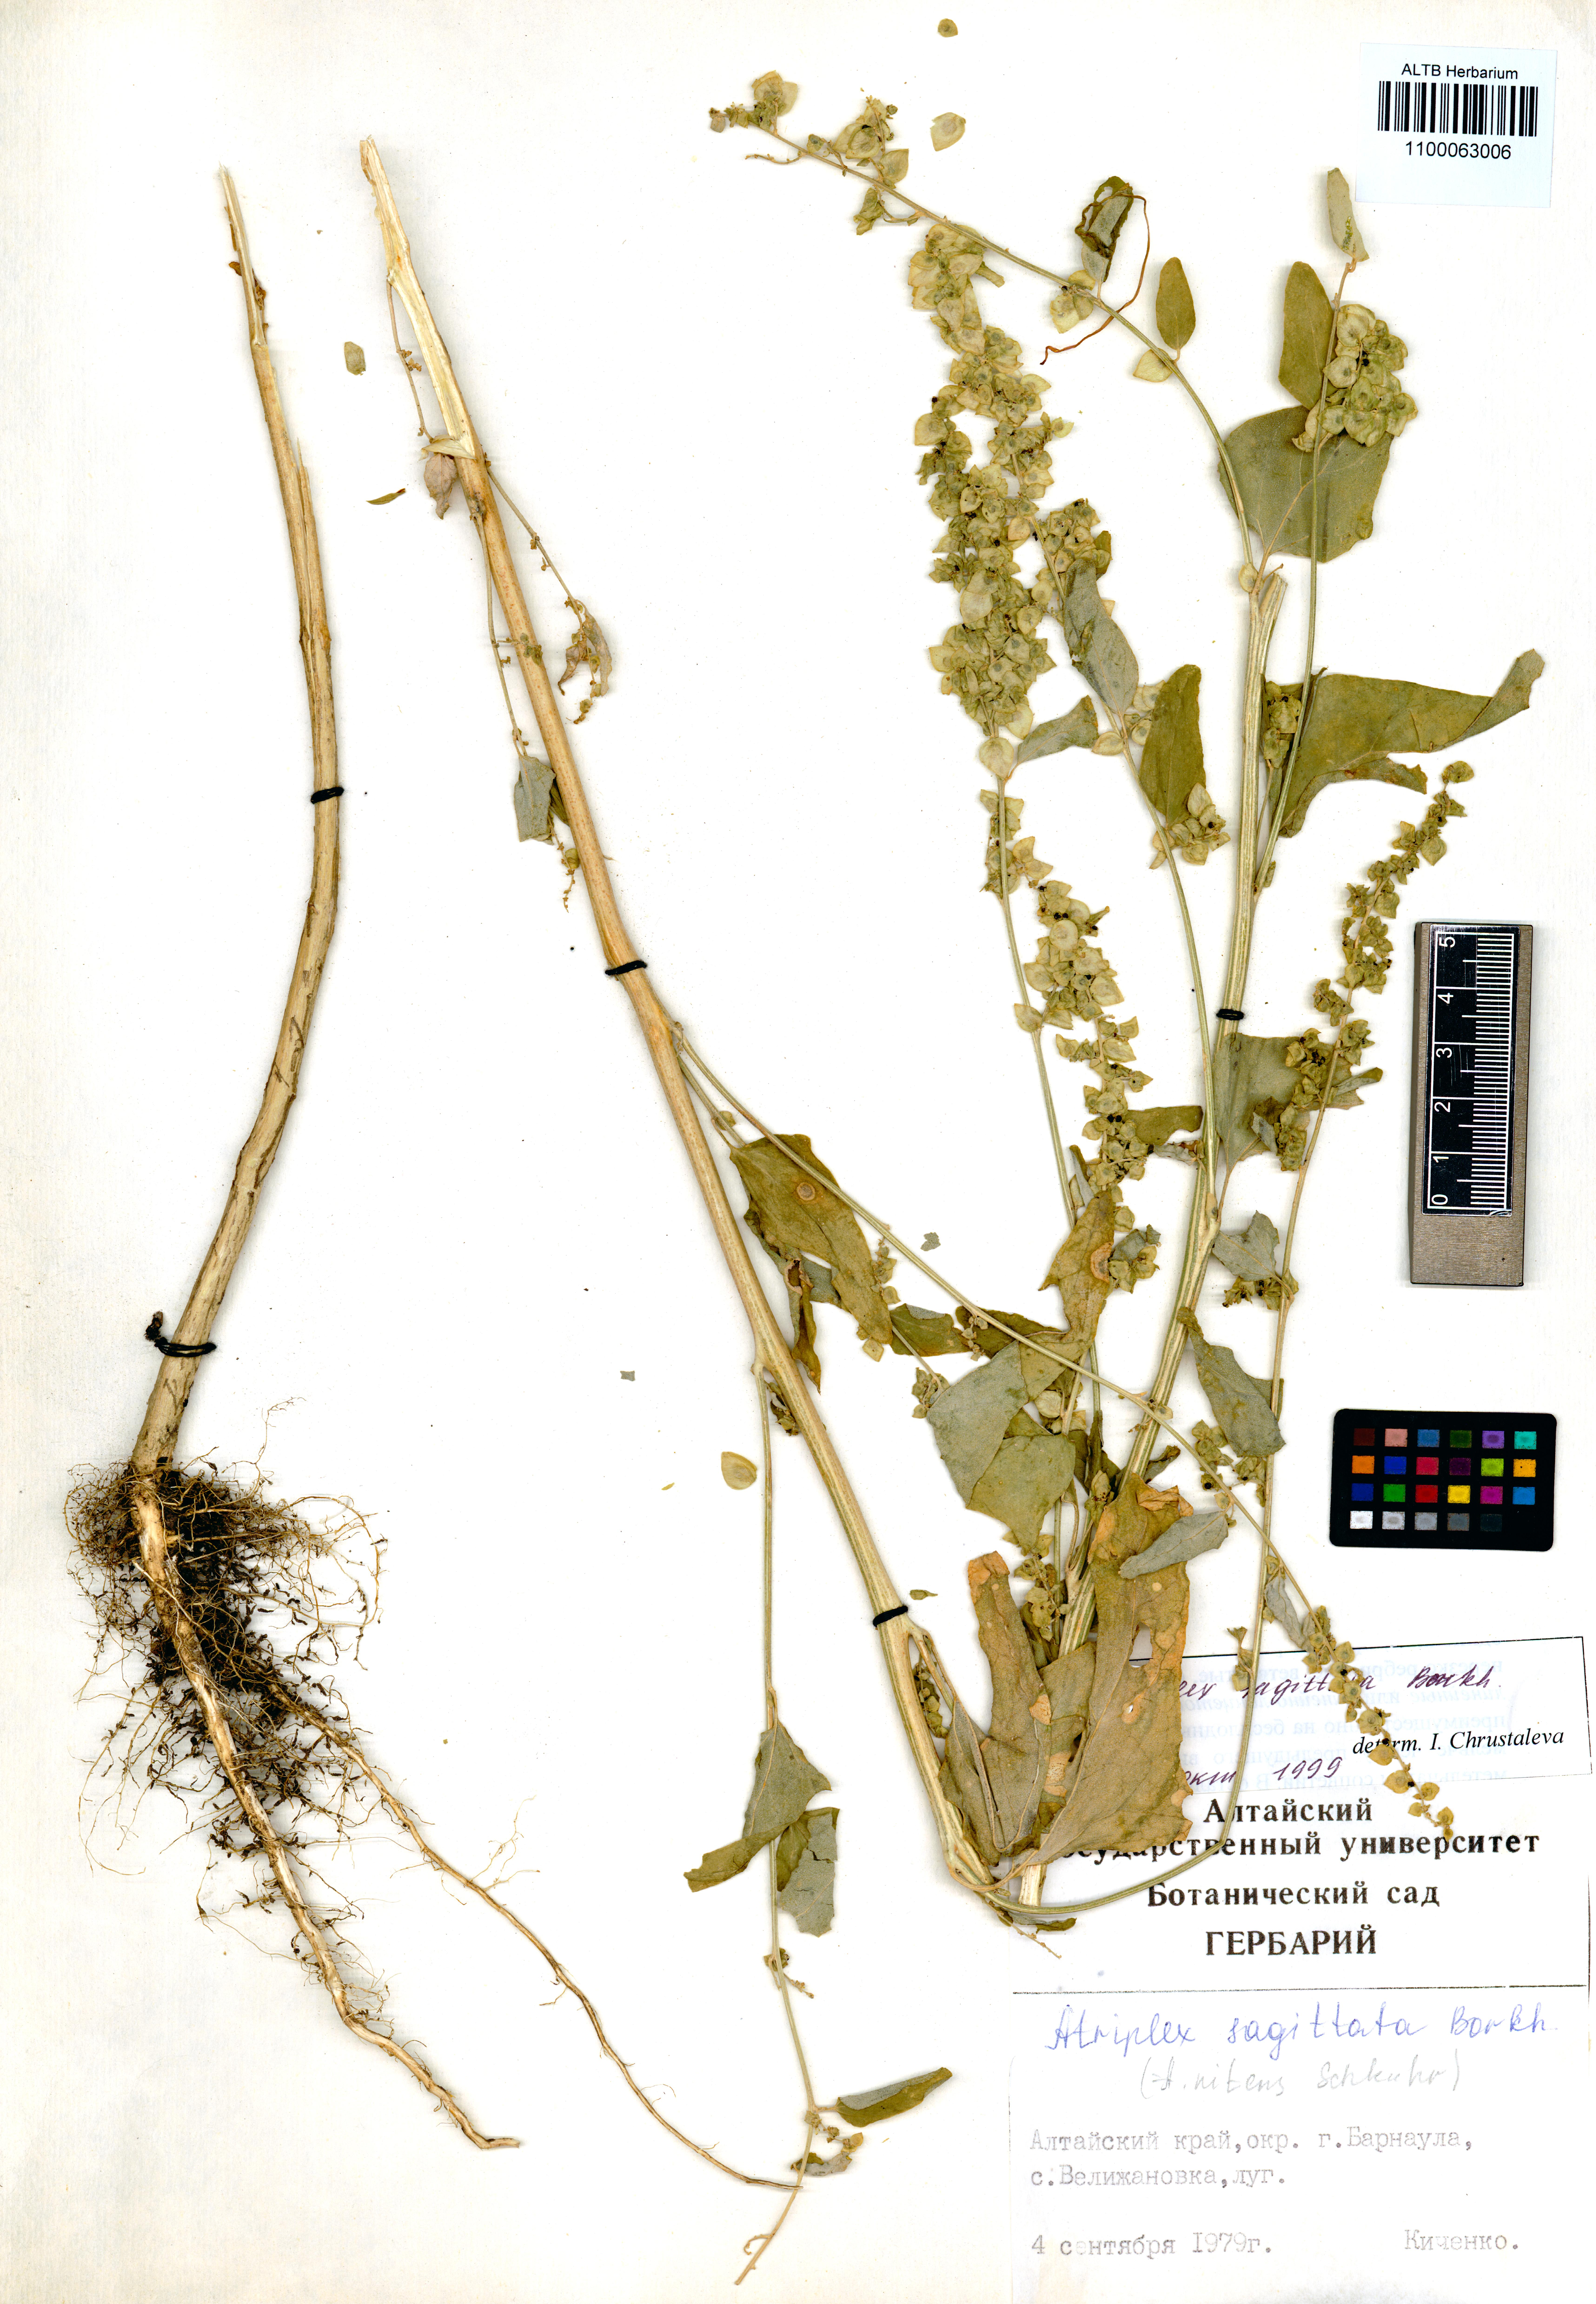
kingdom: Plantae
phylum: Tracheophyta
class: Magnoliopsida
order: Caryophyllales
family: Amaranthaceae
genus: Atriplex
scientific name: Atriplex sagittata
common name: Purple orache
